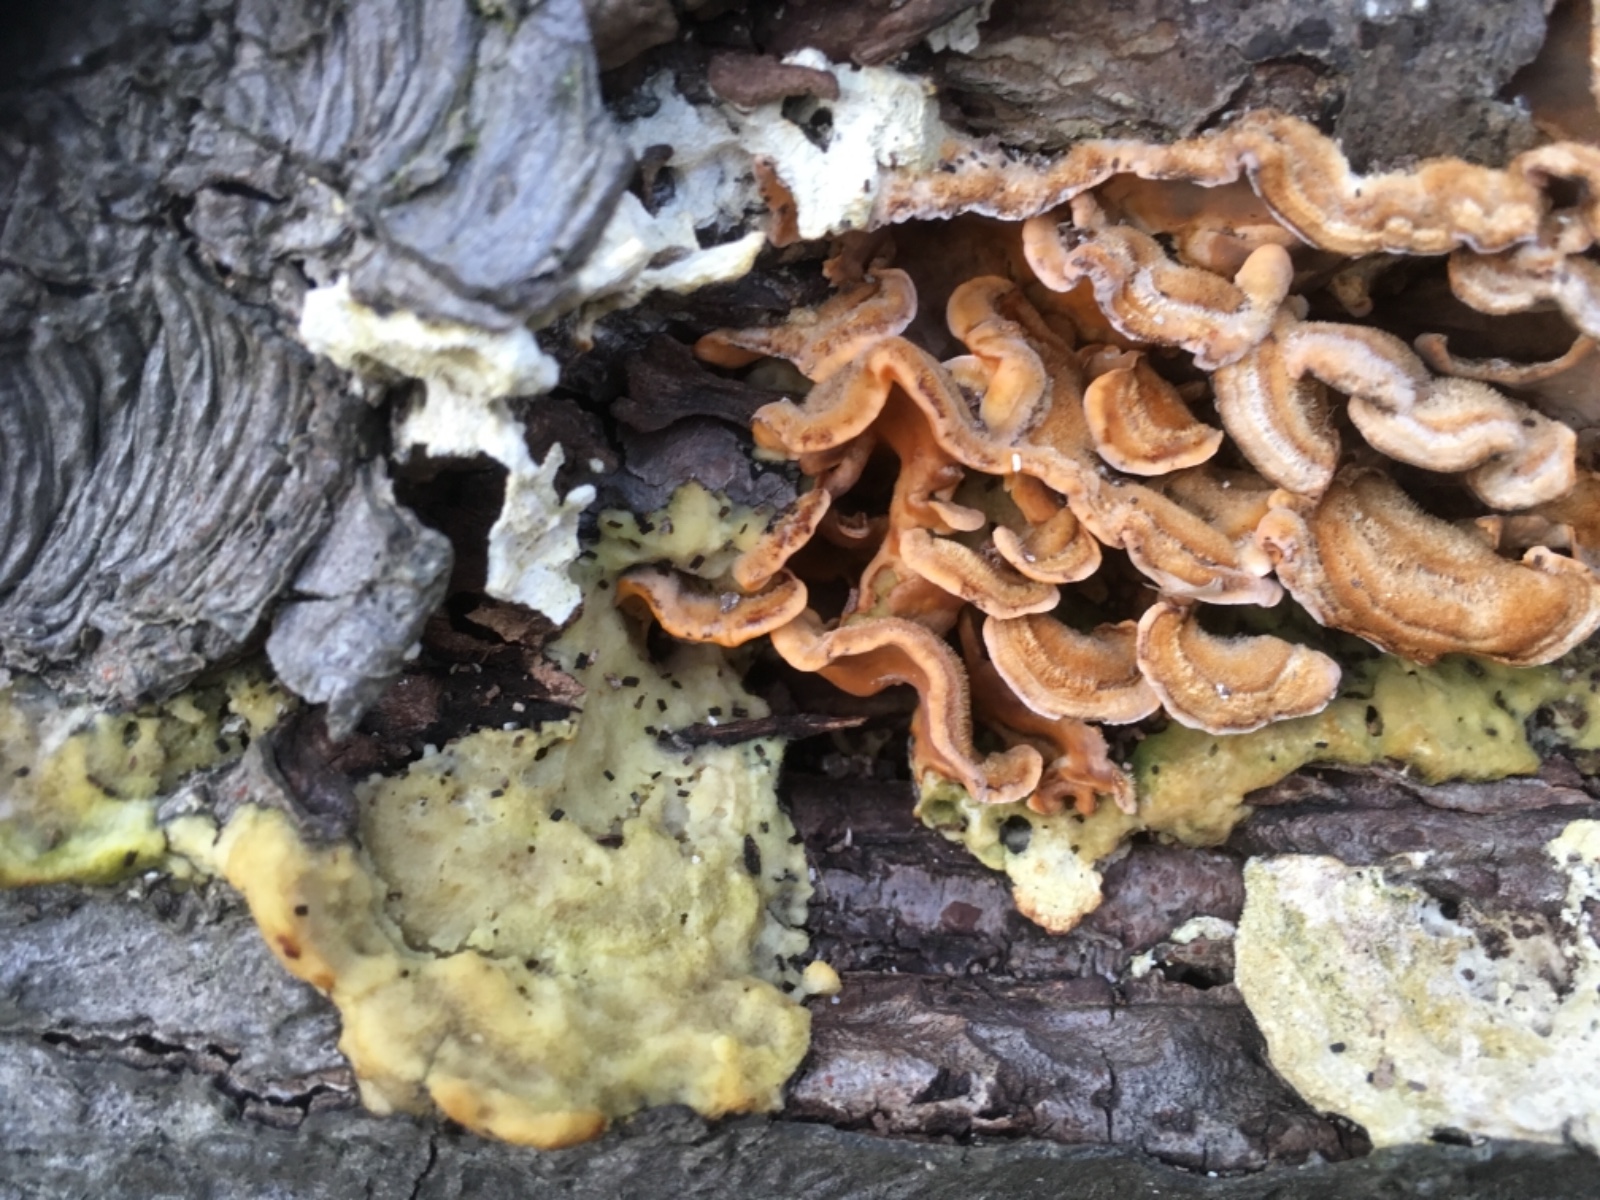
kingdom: Fungi
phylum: Basidiomycota
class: Agaricomycetes
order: Russulales
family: Stereaceae
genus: Stereum
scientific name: Stereum hirsutum
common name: håret lædersvamp
